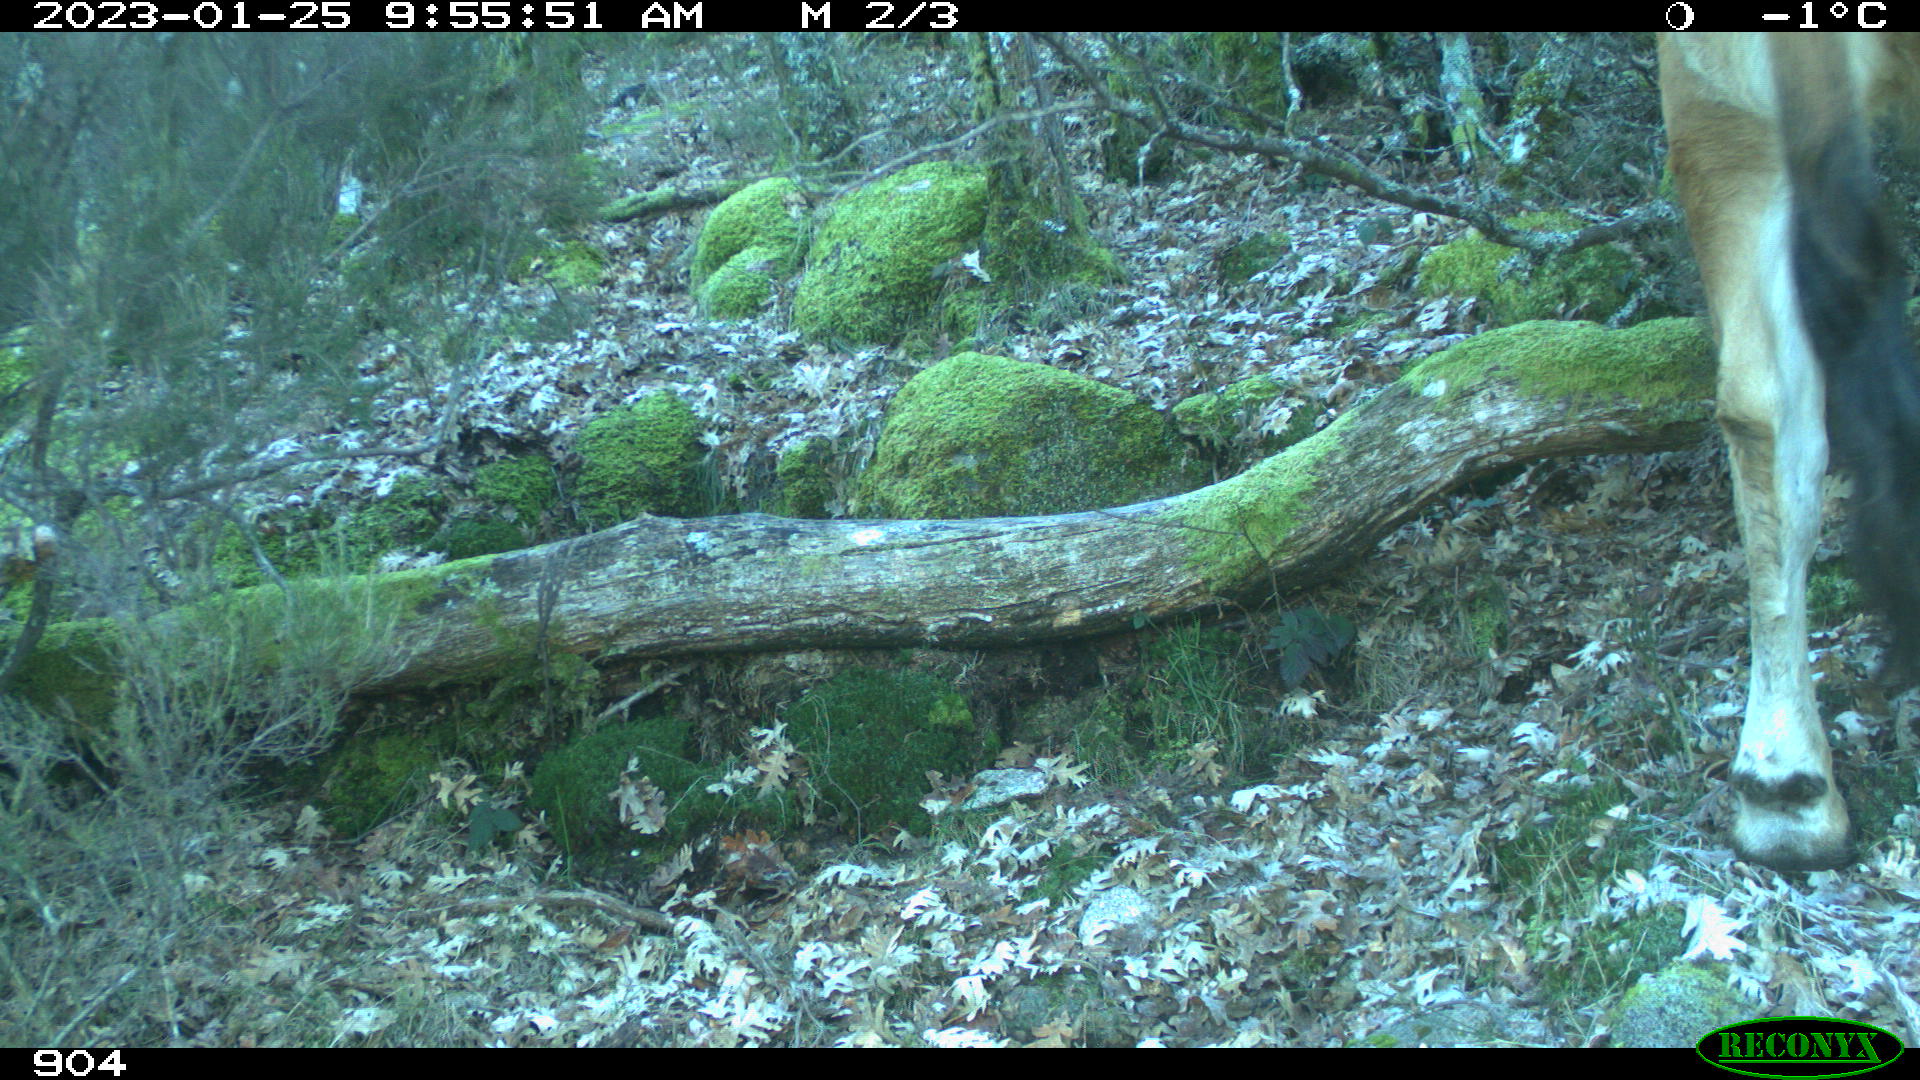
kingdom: Animalia
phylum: Chordata
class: Mammalia
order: Artiodactyla
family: Bovidae
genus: Bos
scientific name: Bos taurus
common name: Domesticated cattle
